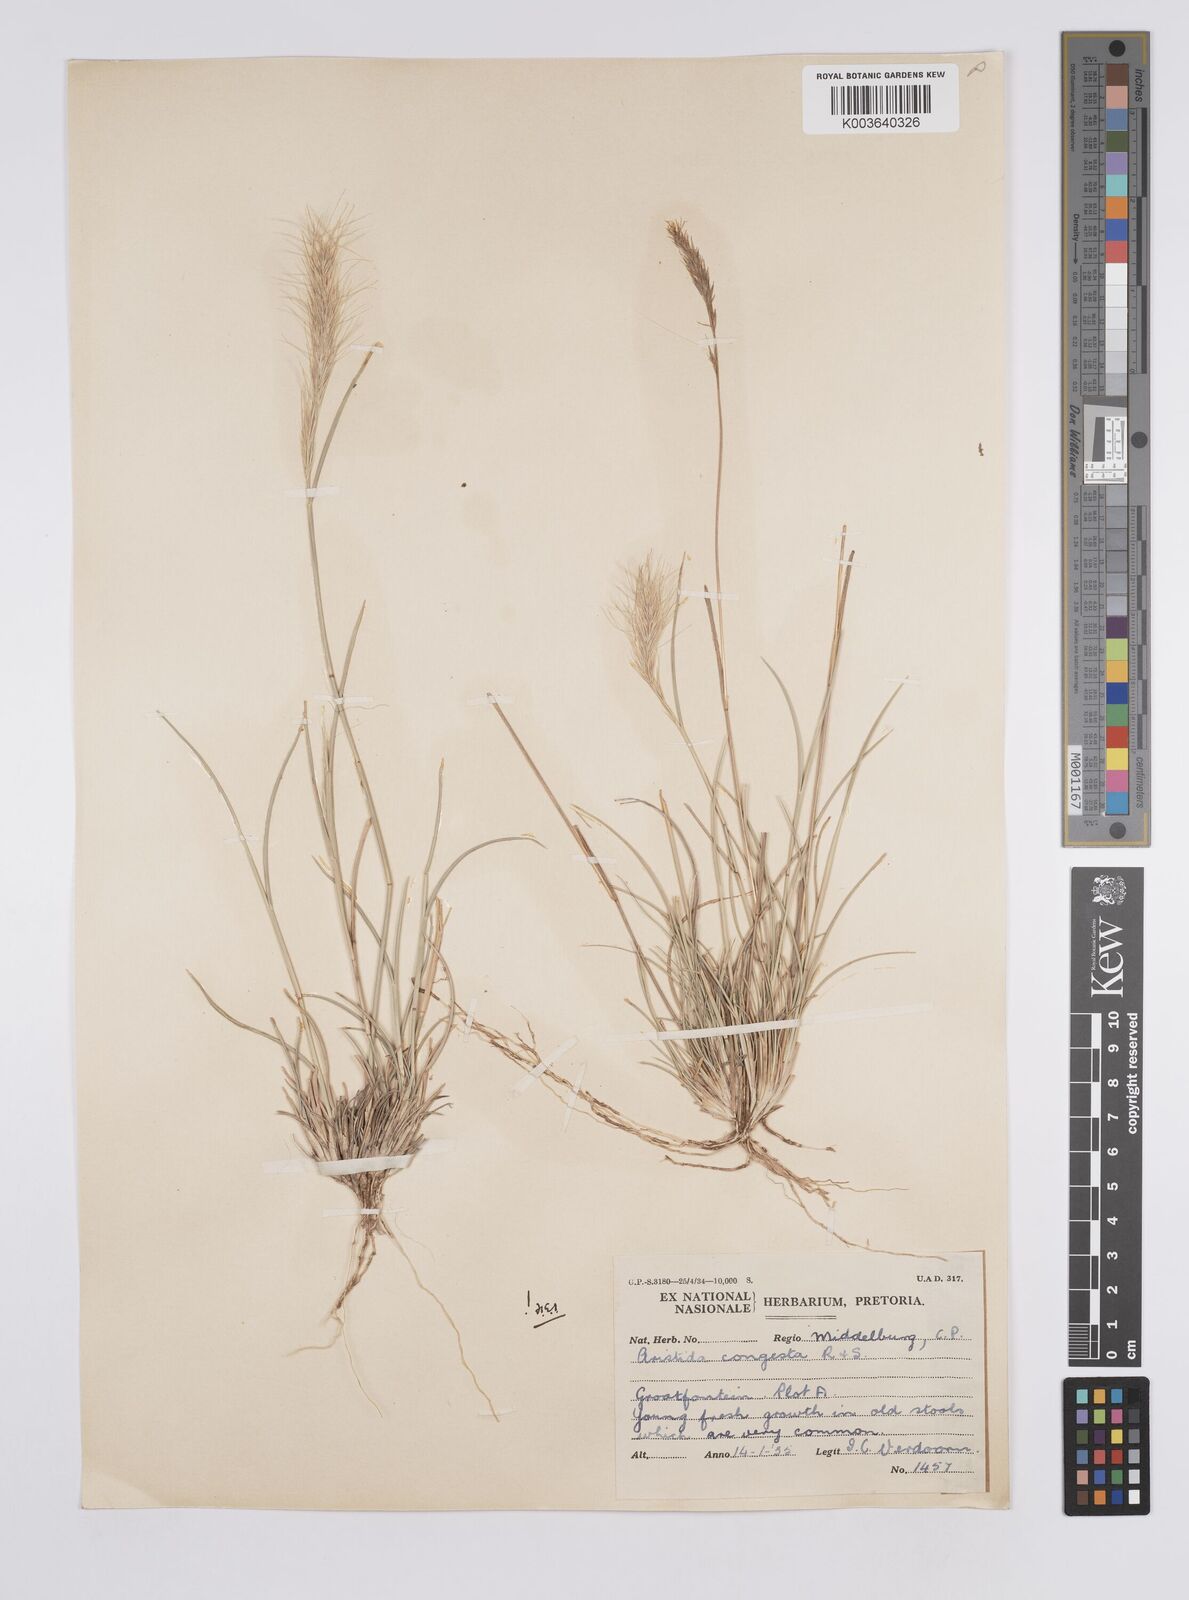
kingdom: Plantae
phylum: Tracheophyta
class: Liliopsida
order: Poales
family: Poaceae
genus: Aristida
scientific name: Aristida congesta
